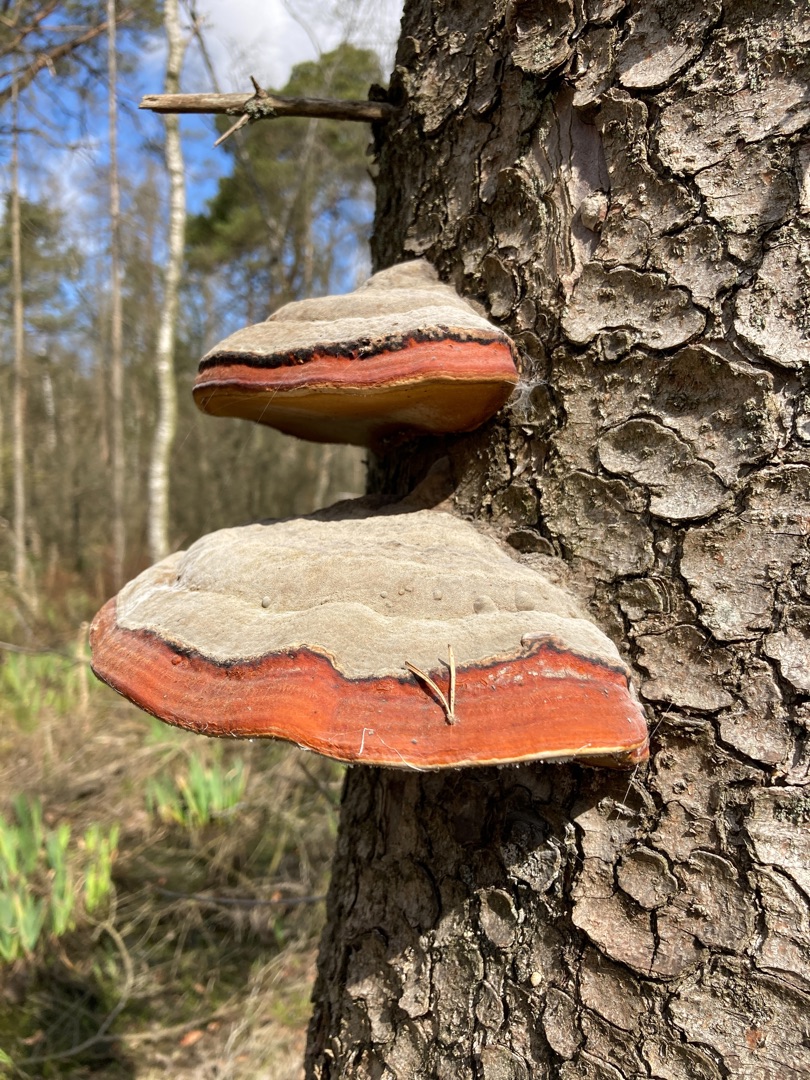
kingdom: Fungi
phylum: Basidiomycota
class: Agaricomycetes
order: Polyporales
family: Fomitopsidaceae
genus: Fomitopsis
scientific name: Fomitopsis pinicola
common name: Randbæltet hovporesvamp
